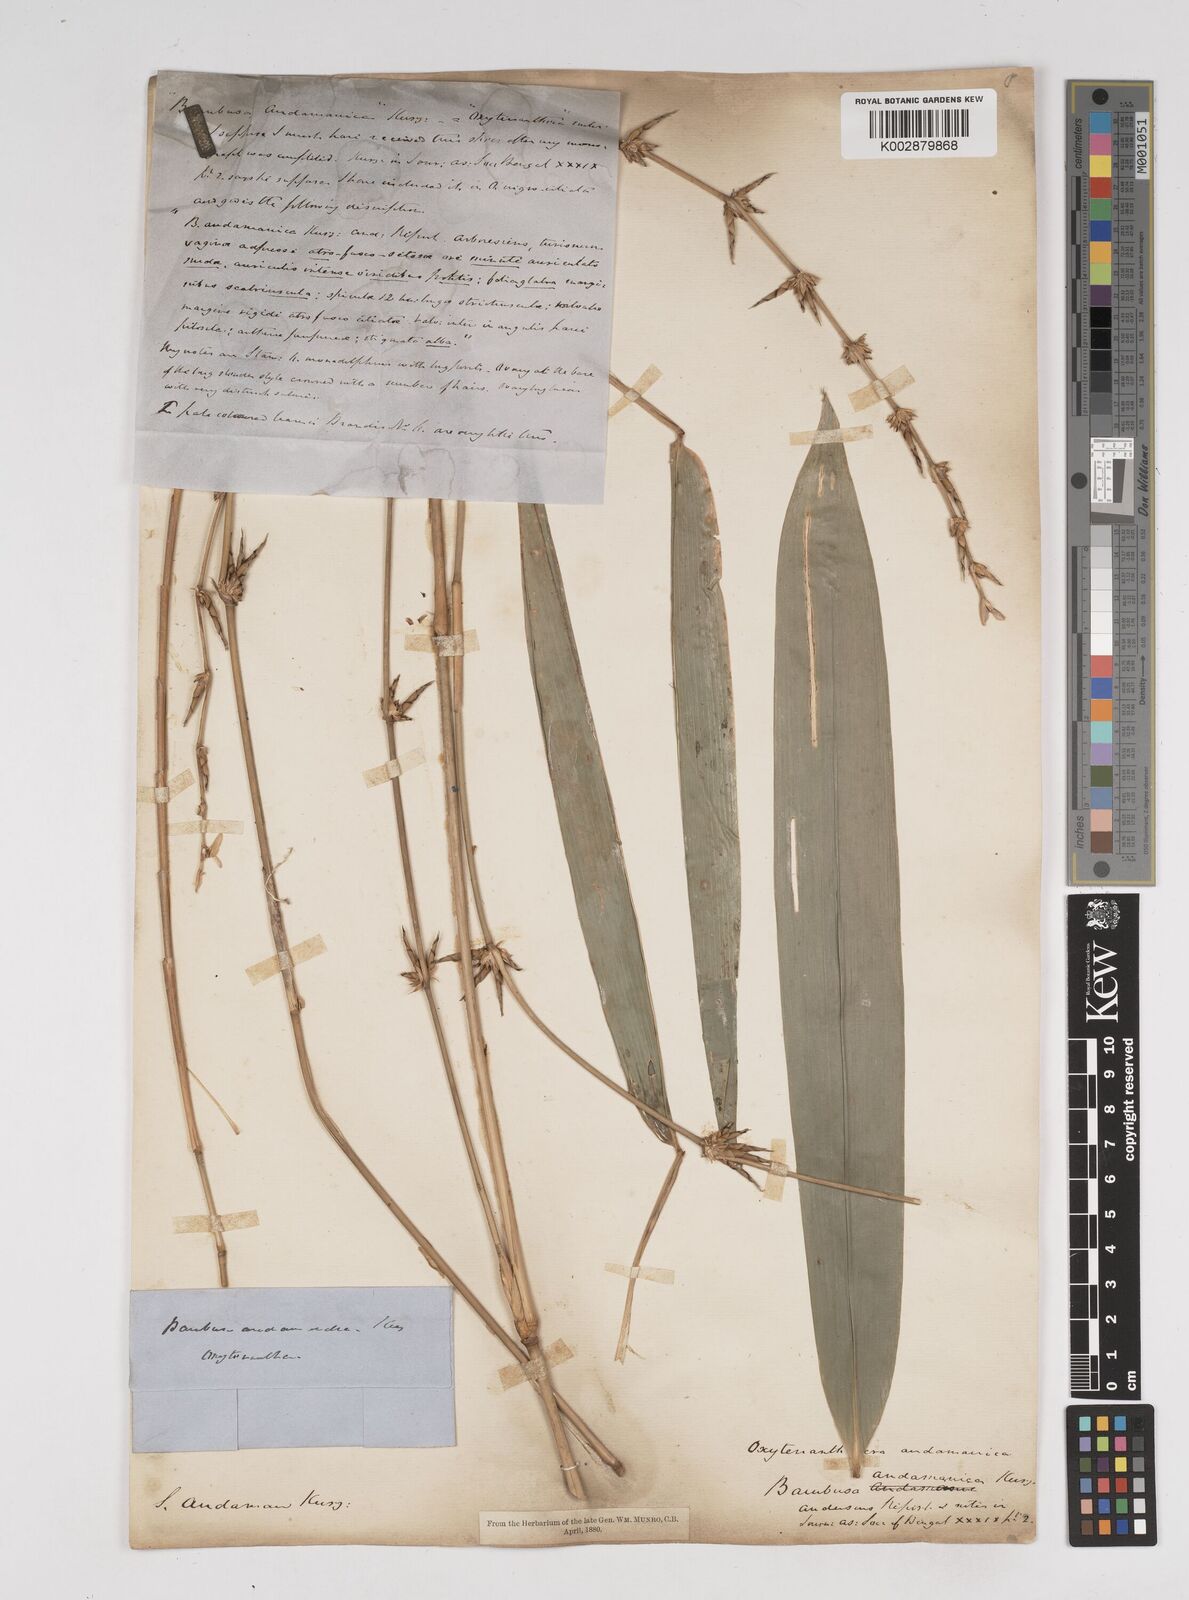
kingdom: Plantae
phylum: Tracheophyta
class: Liliopsida
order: Poales
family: Poaceae
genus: Gigantochloa
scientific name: Gigantochloa
